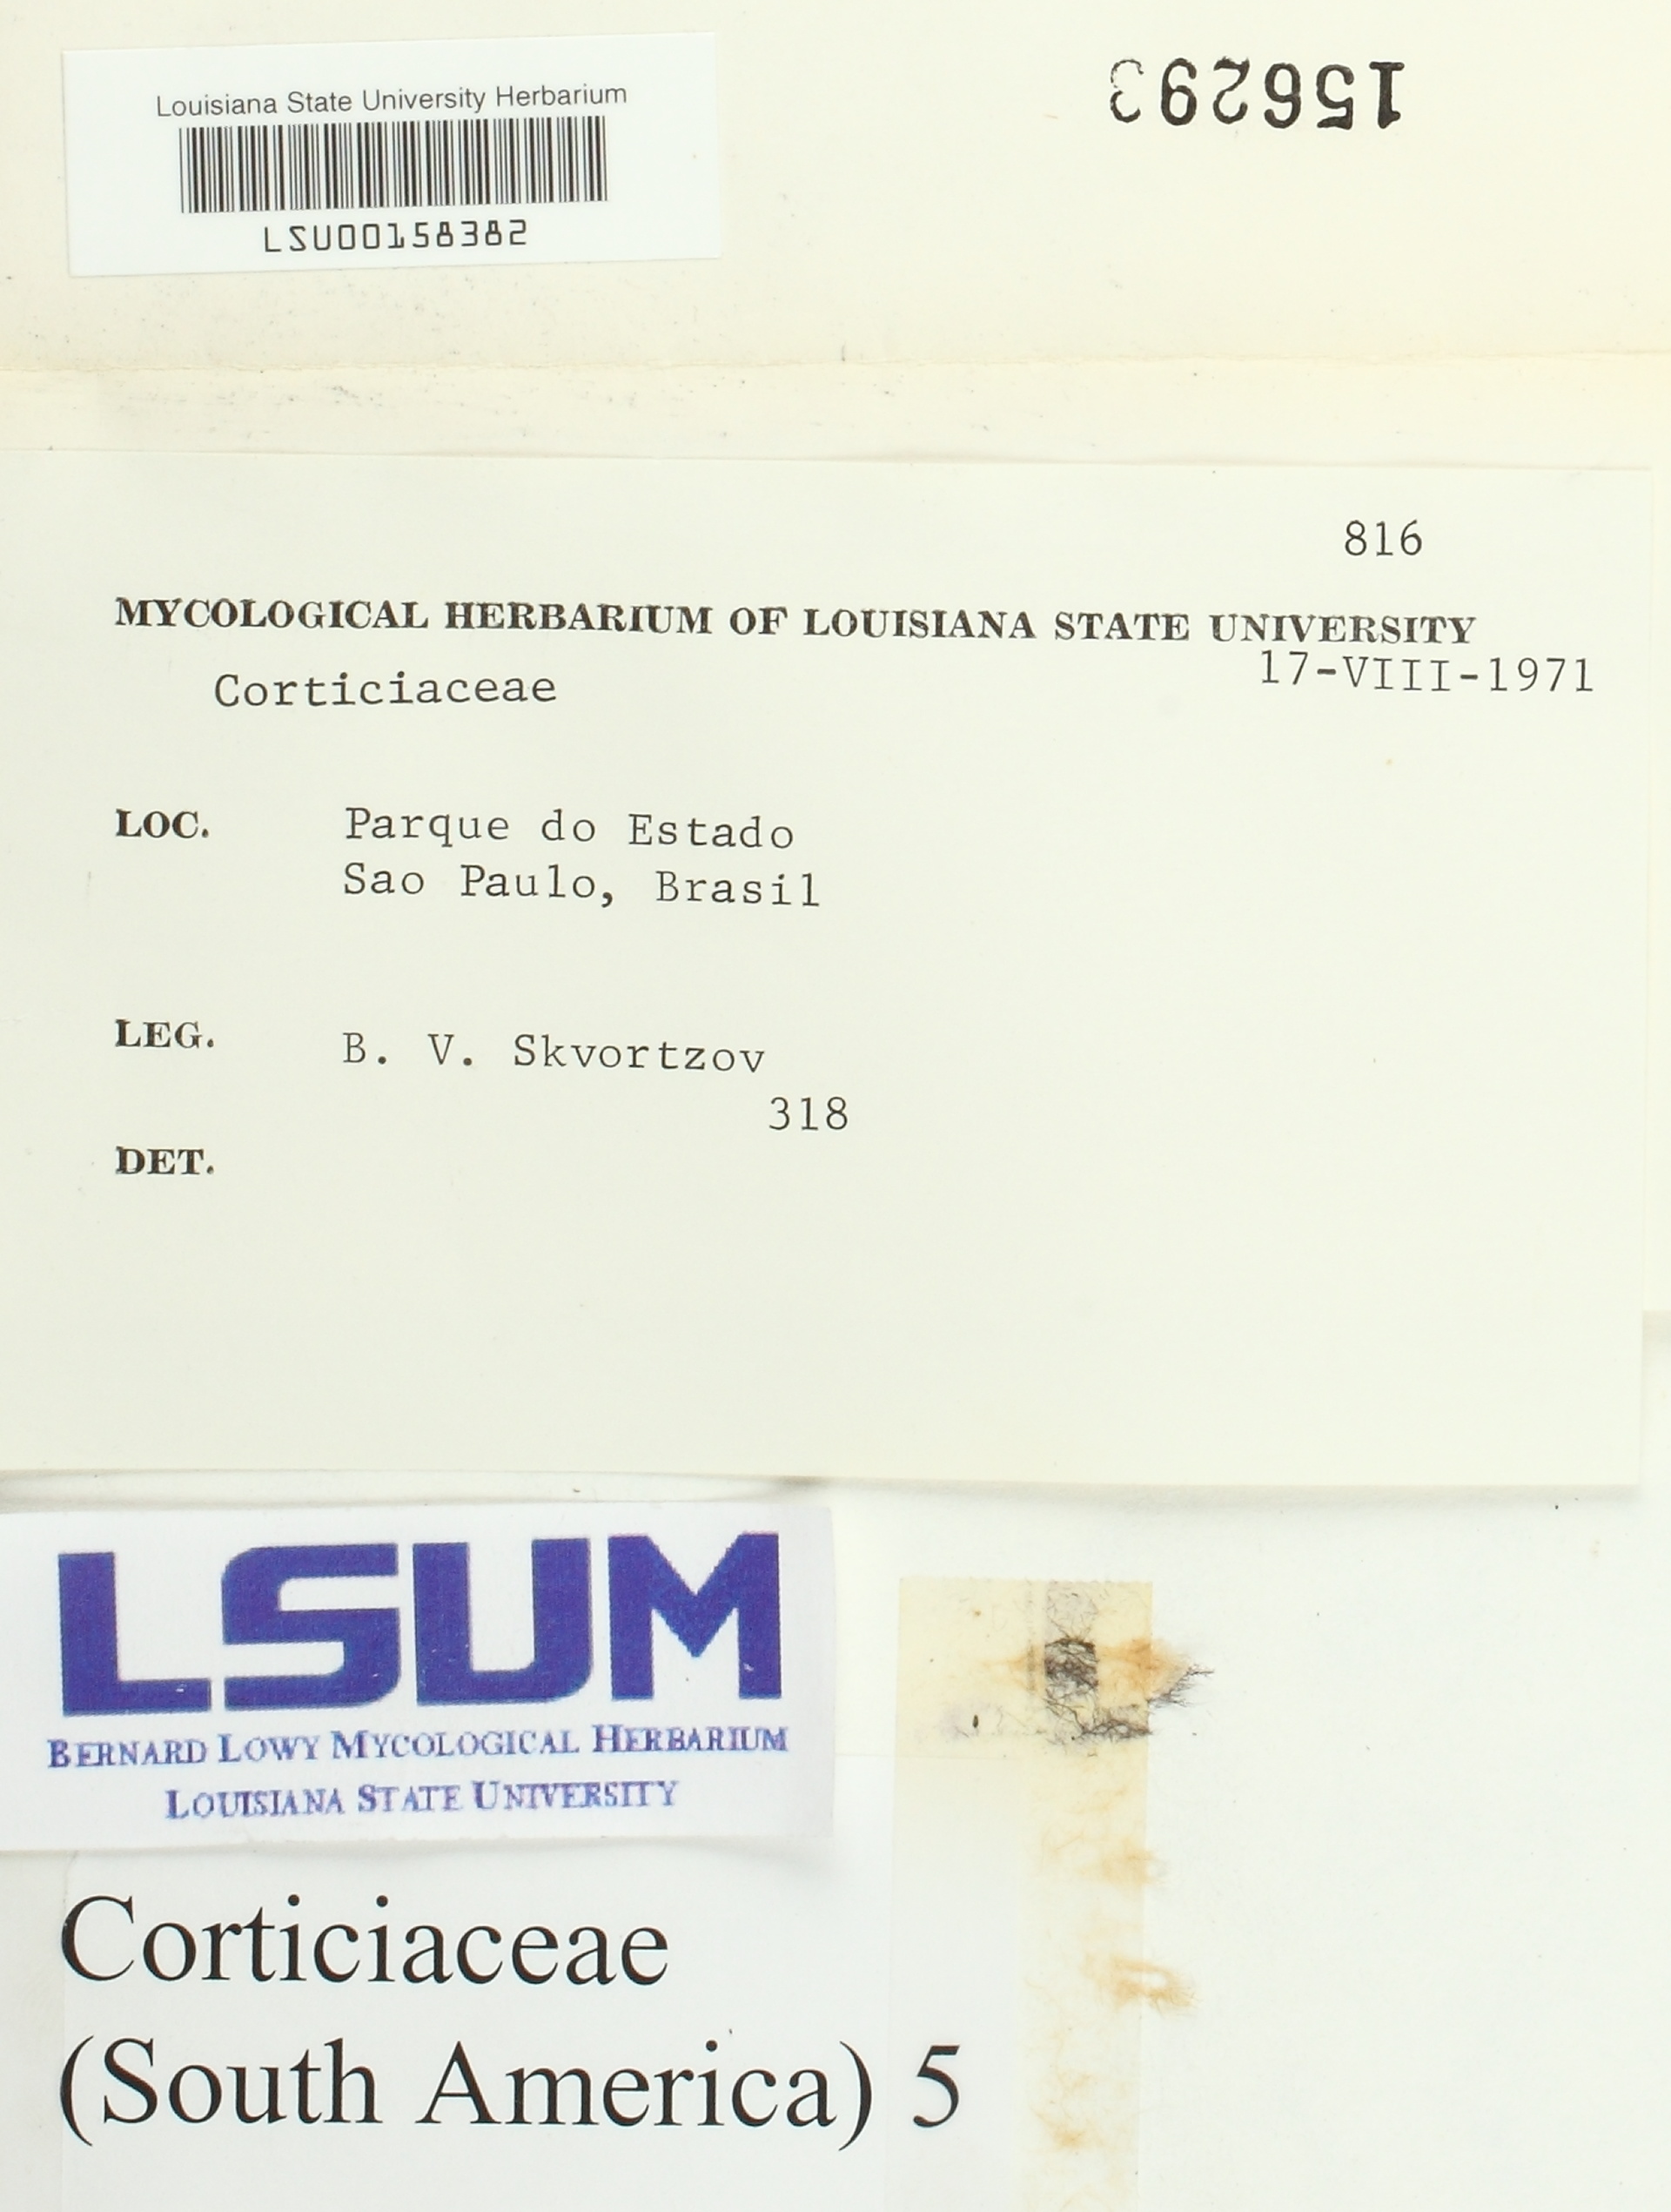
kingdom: Fungi
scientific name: Fungi
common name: Fungi
